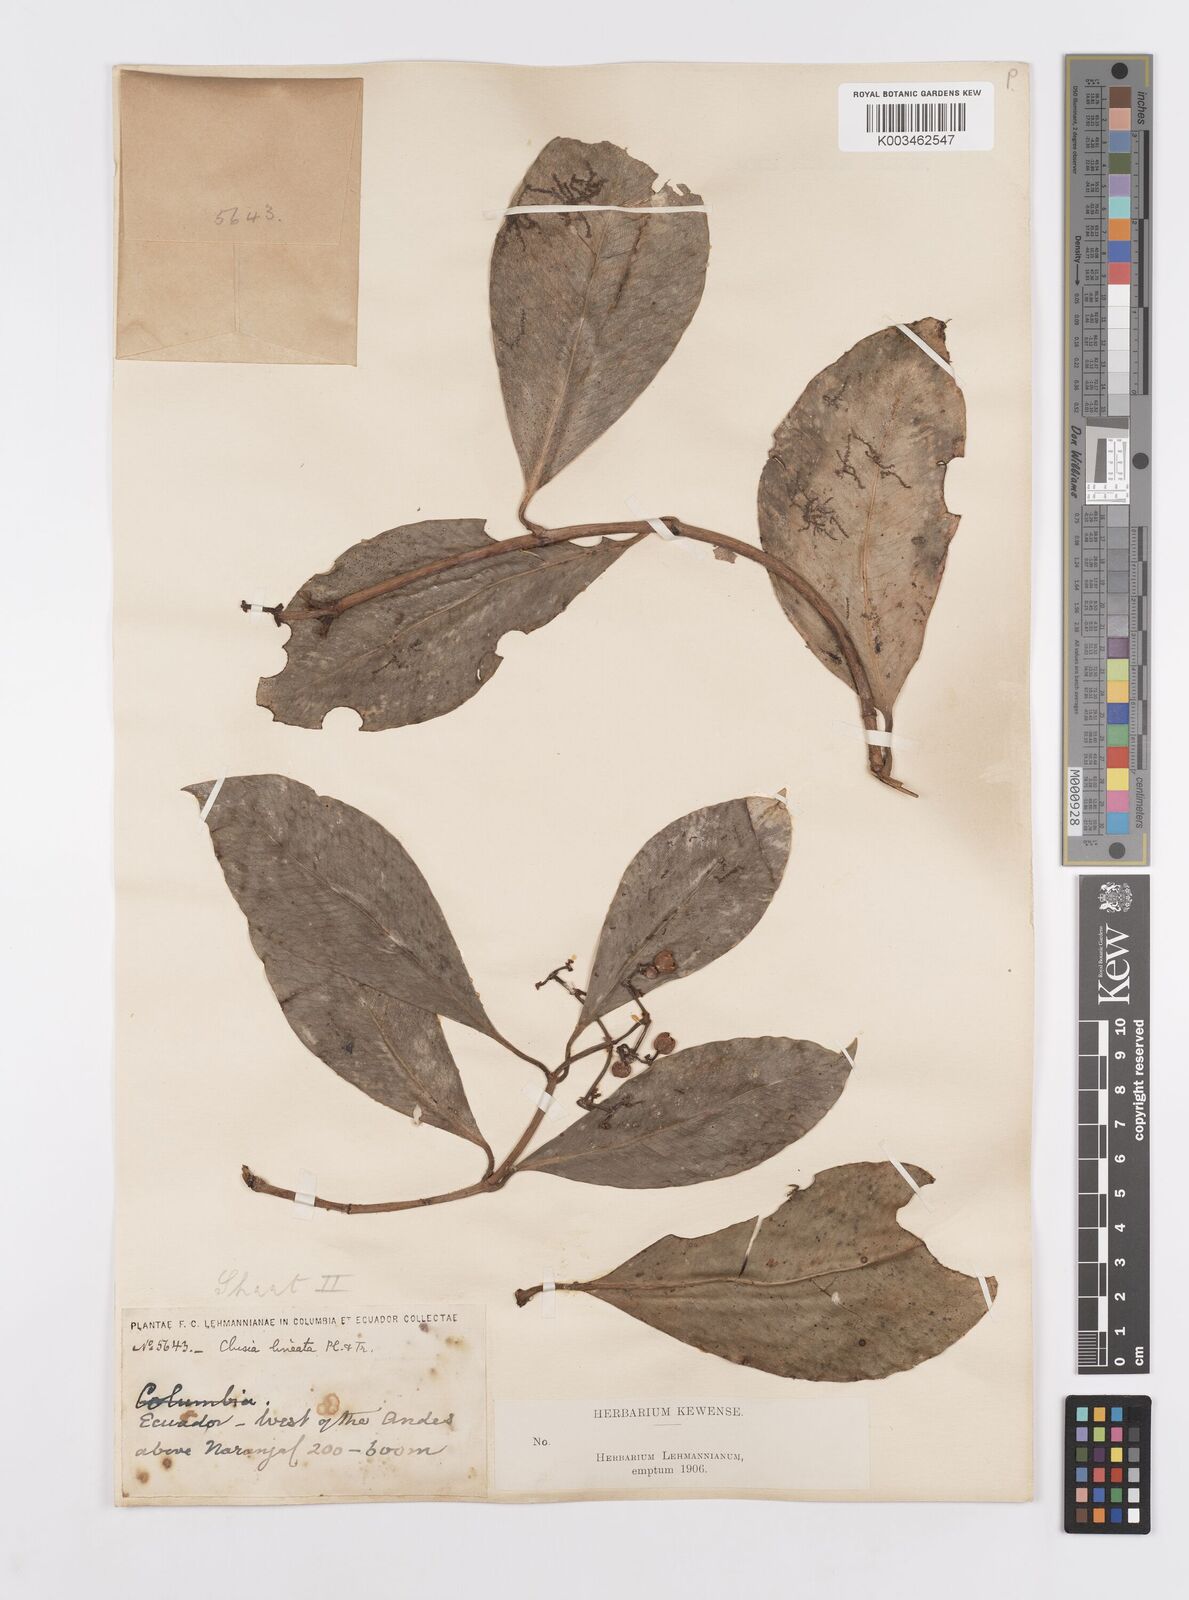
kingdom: Plantae
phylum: Tracheophyta
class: Magnoliopsida
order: Malpighiales
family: Clusiaceae
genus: Clusia
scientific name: Clusia lineata
